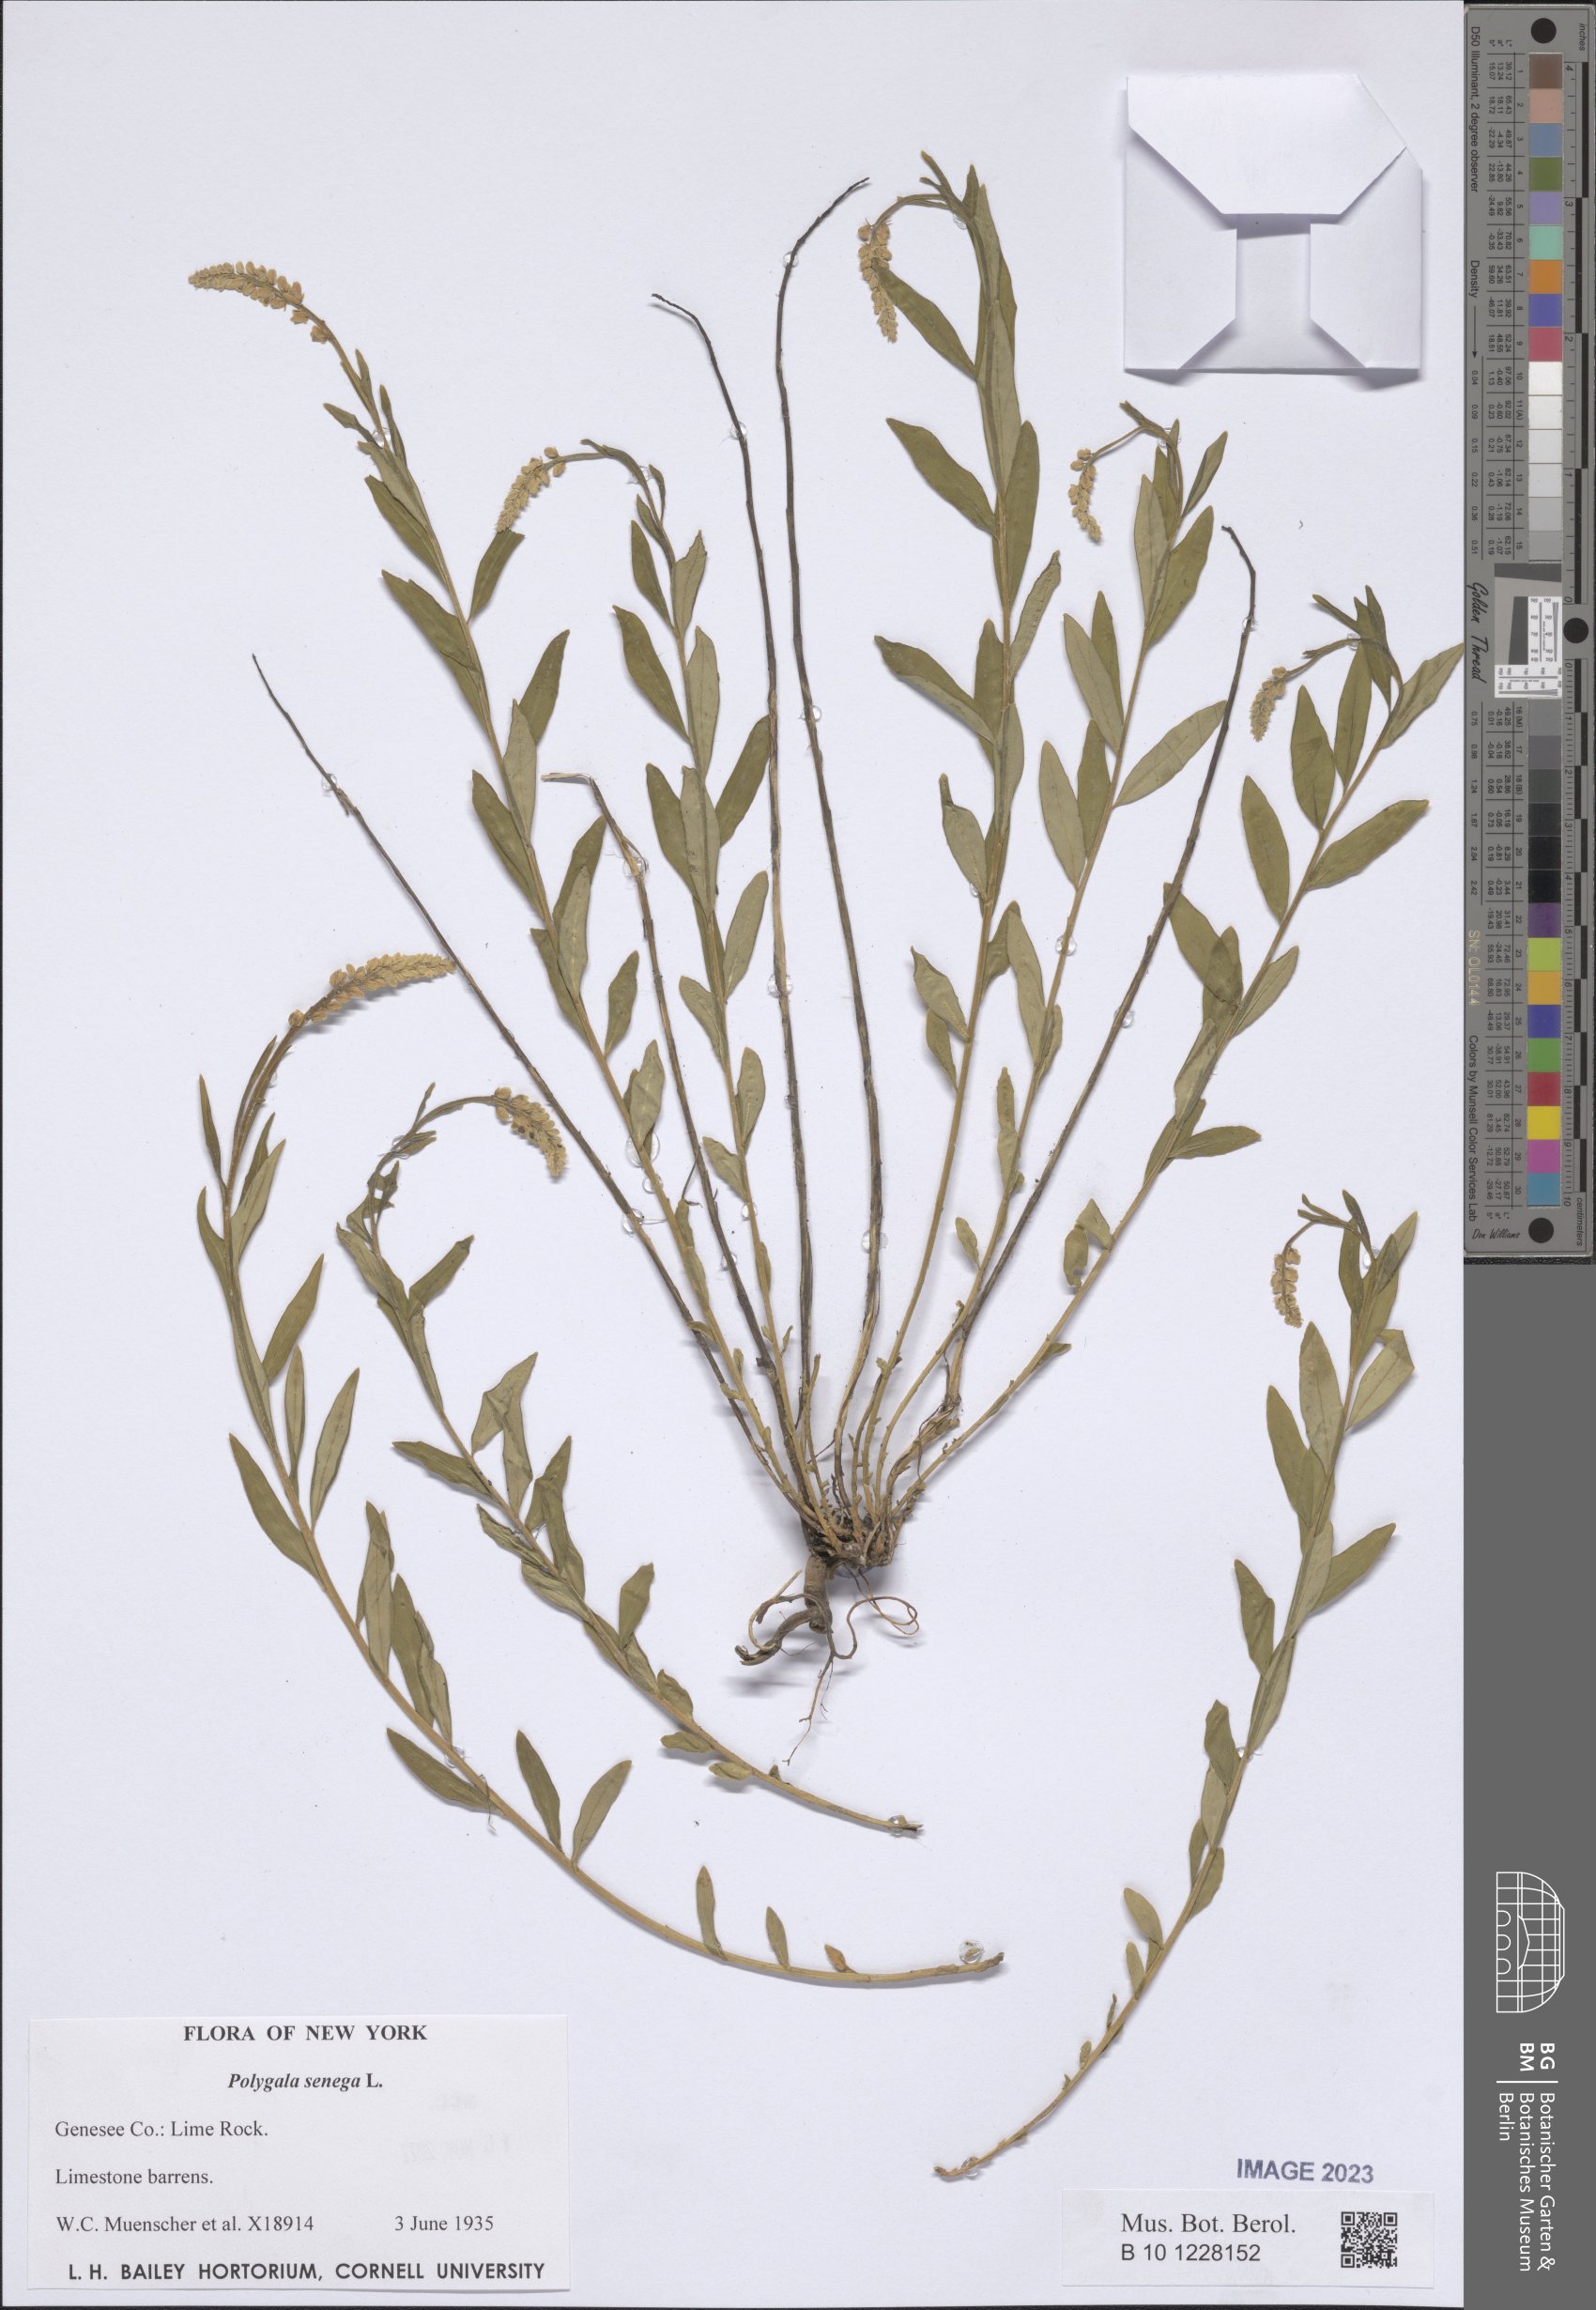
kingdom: Plantae
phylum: Tracheophyta
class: Magnoliopsida
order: Fabales
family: Polygalaceae
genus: Polygala
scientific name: Polygala senega
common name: Seneca snakeroot
